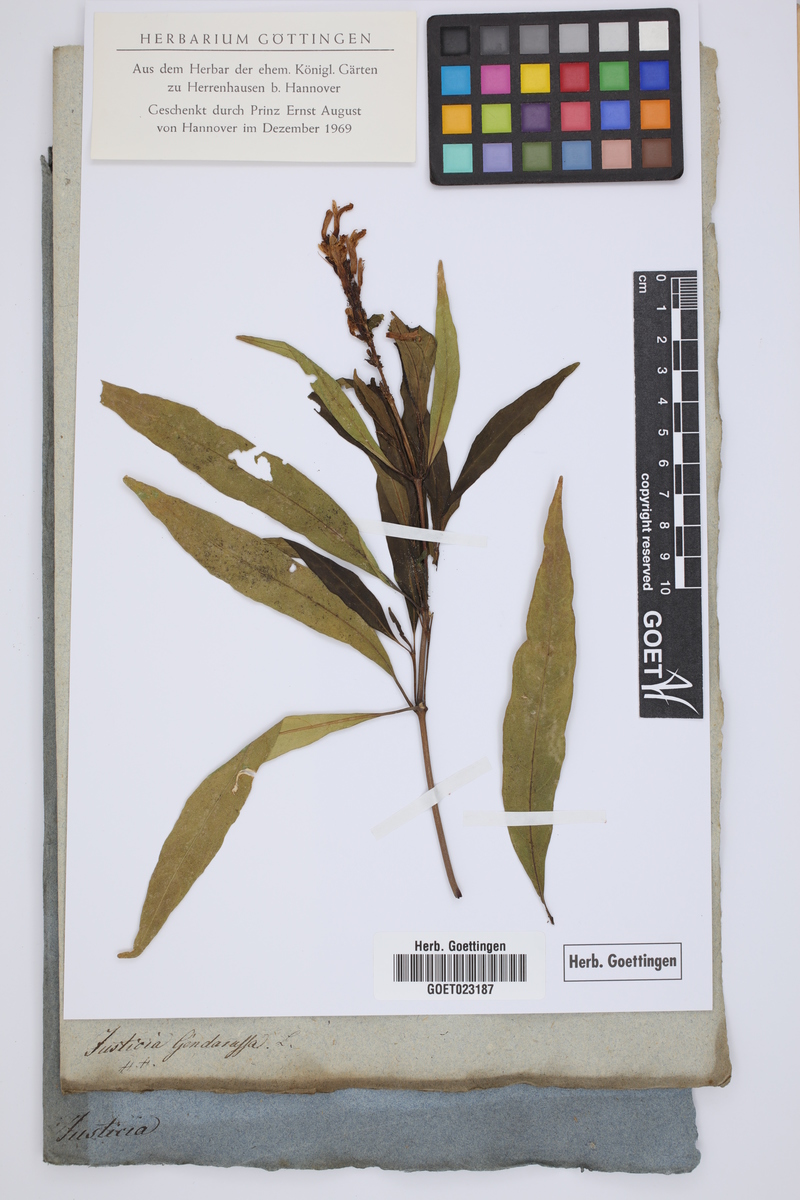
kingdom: Plantae
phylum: Tracheophyta
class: Magnoliopsida
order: Lamiales
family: Acanthaceae
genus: Justicia
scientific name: Justicia gendarussa
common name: Warer willow
